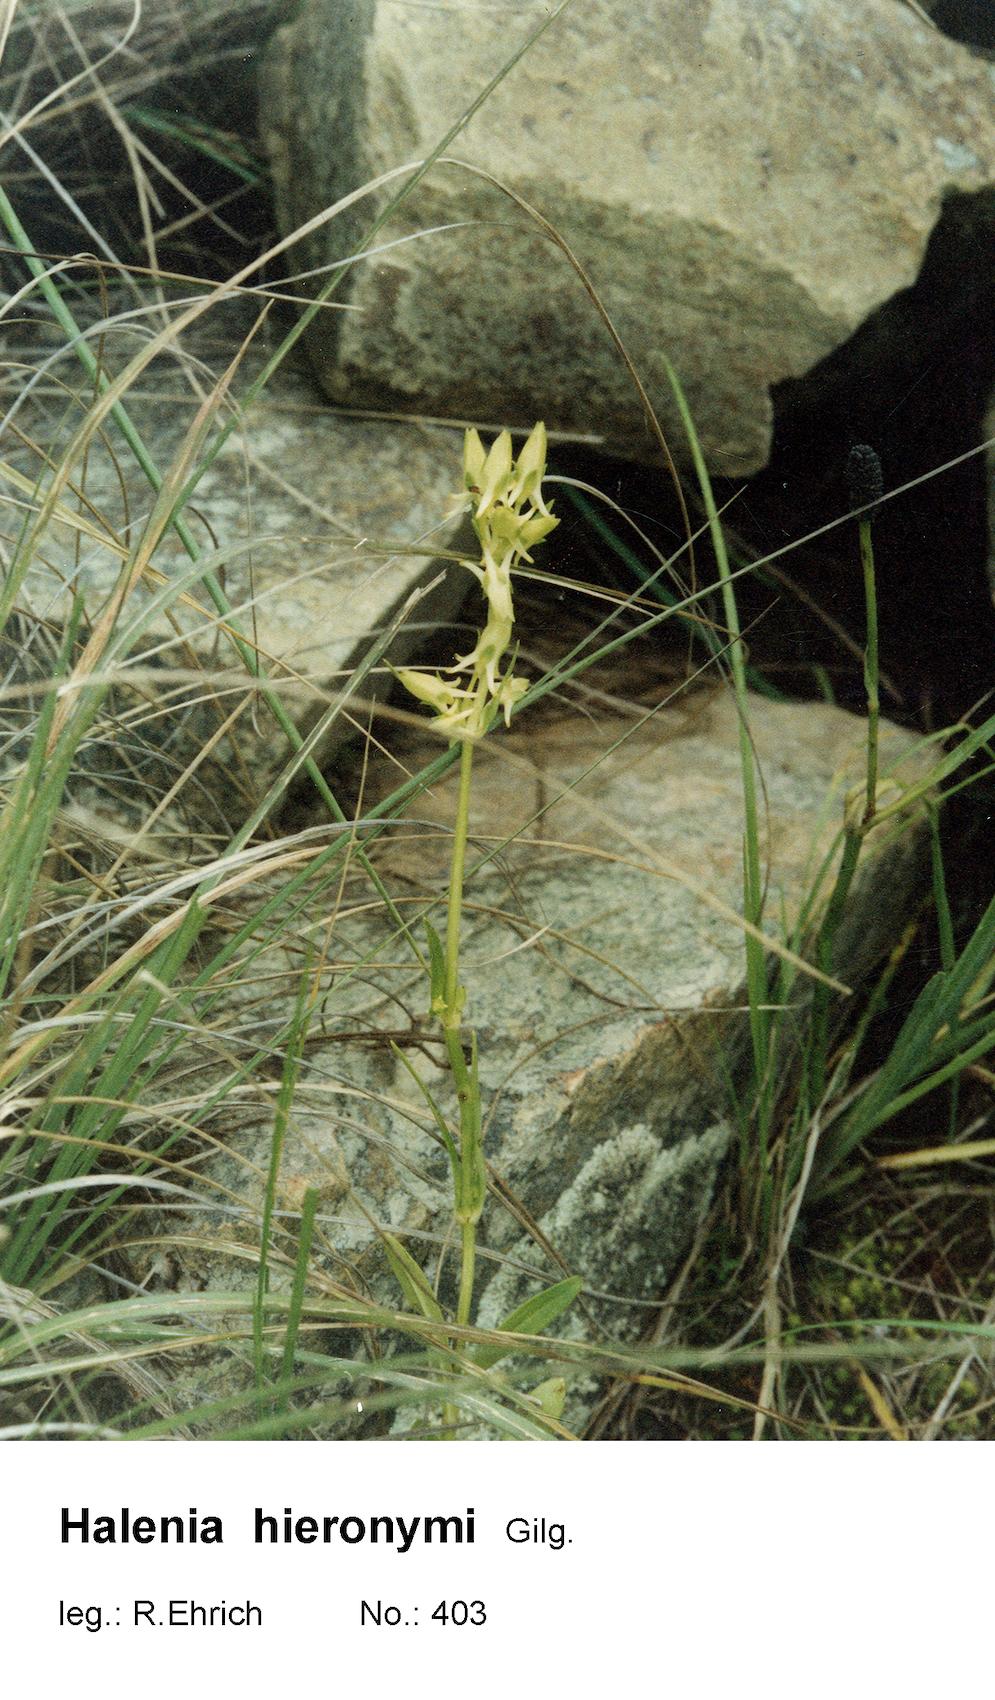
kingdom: Plantae
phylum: Tracheophyta
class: Magnoliopsida
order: Gentianales
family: Gentianaceae
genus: Halenia
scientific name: Halenia hieronymi
